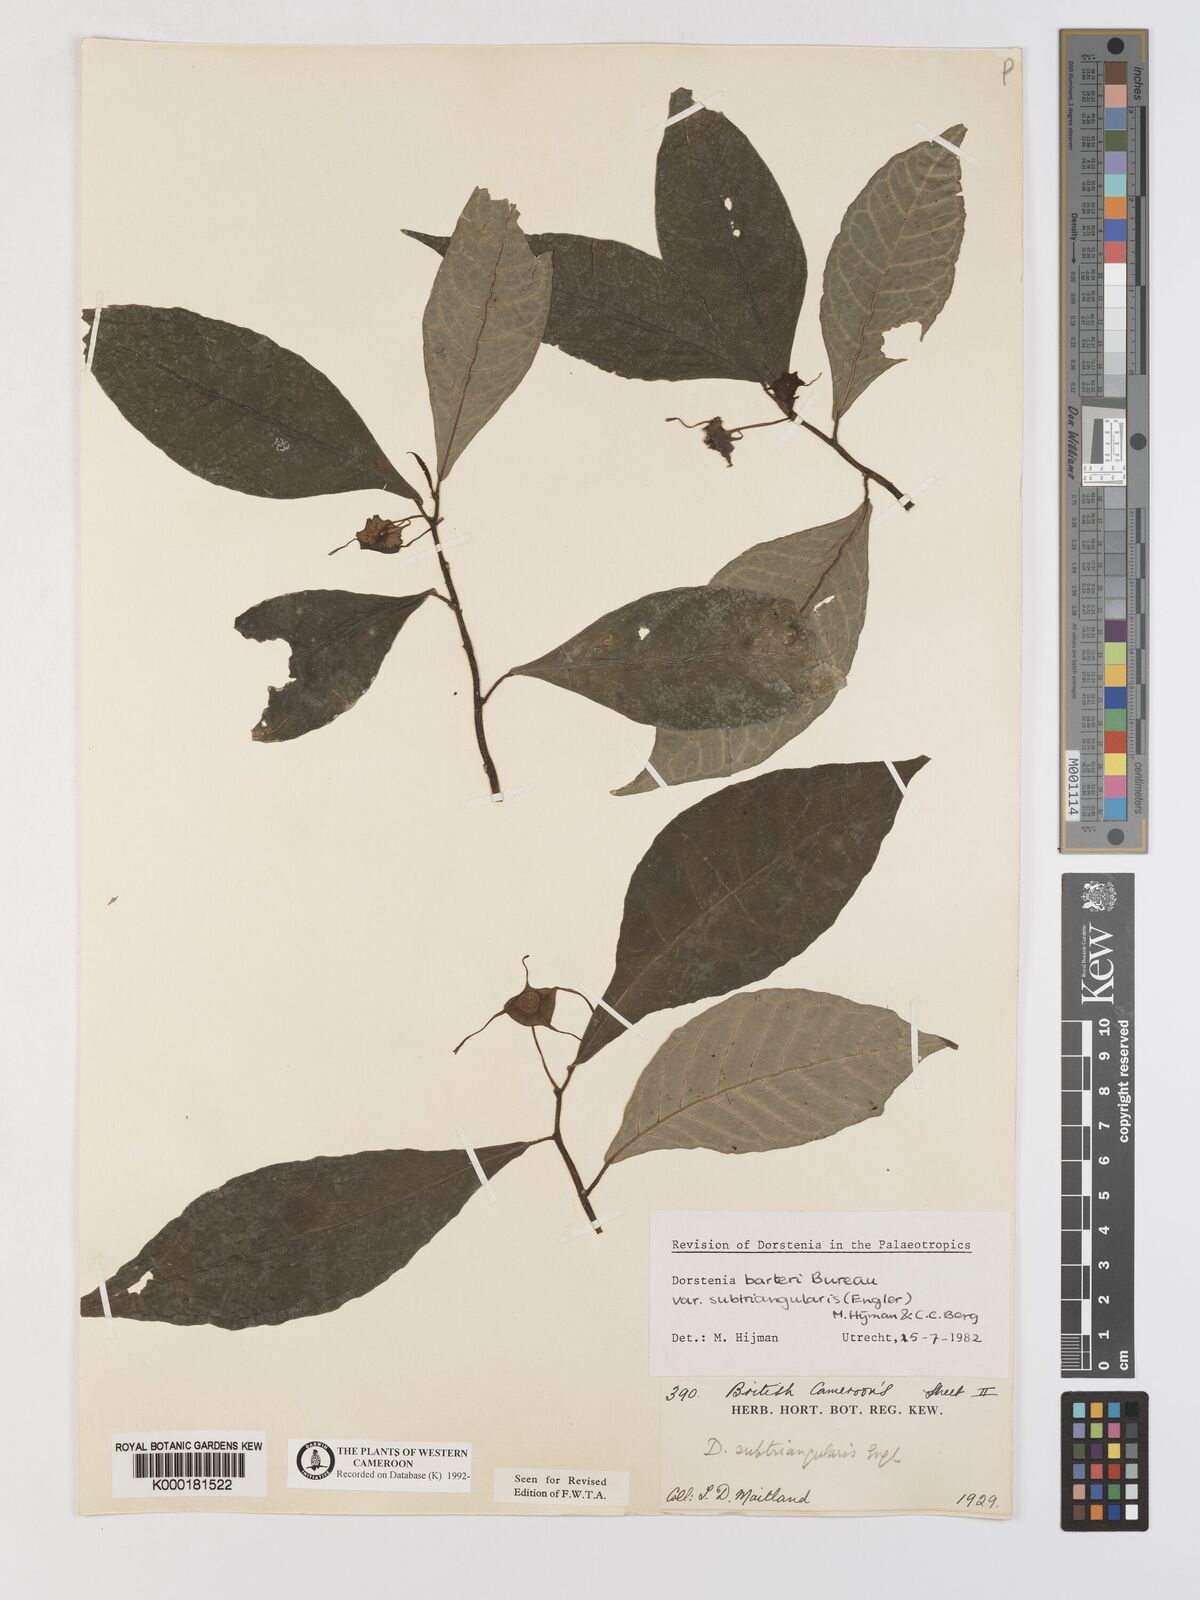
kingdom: Plantae
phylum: Tracheophyta
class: Magnoliopsida
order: Rosales
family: Moraceae
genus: Dorstenia
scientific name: Dorstenia barteri
